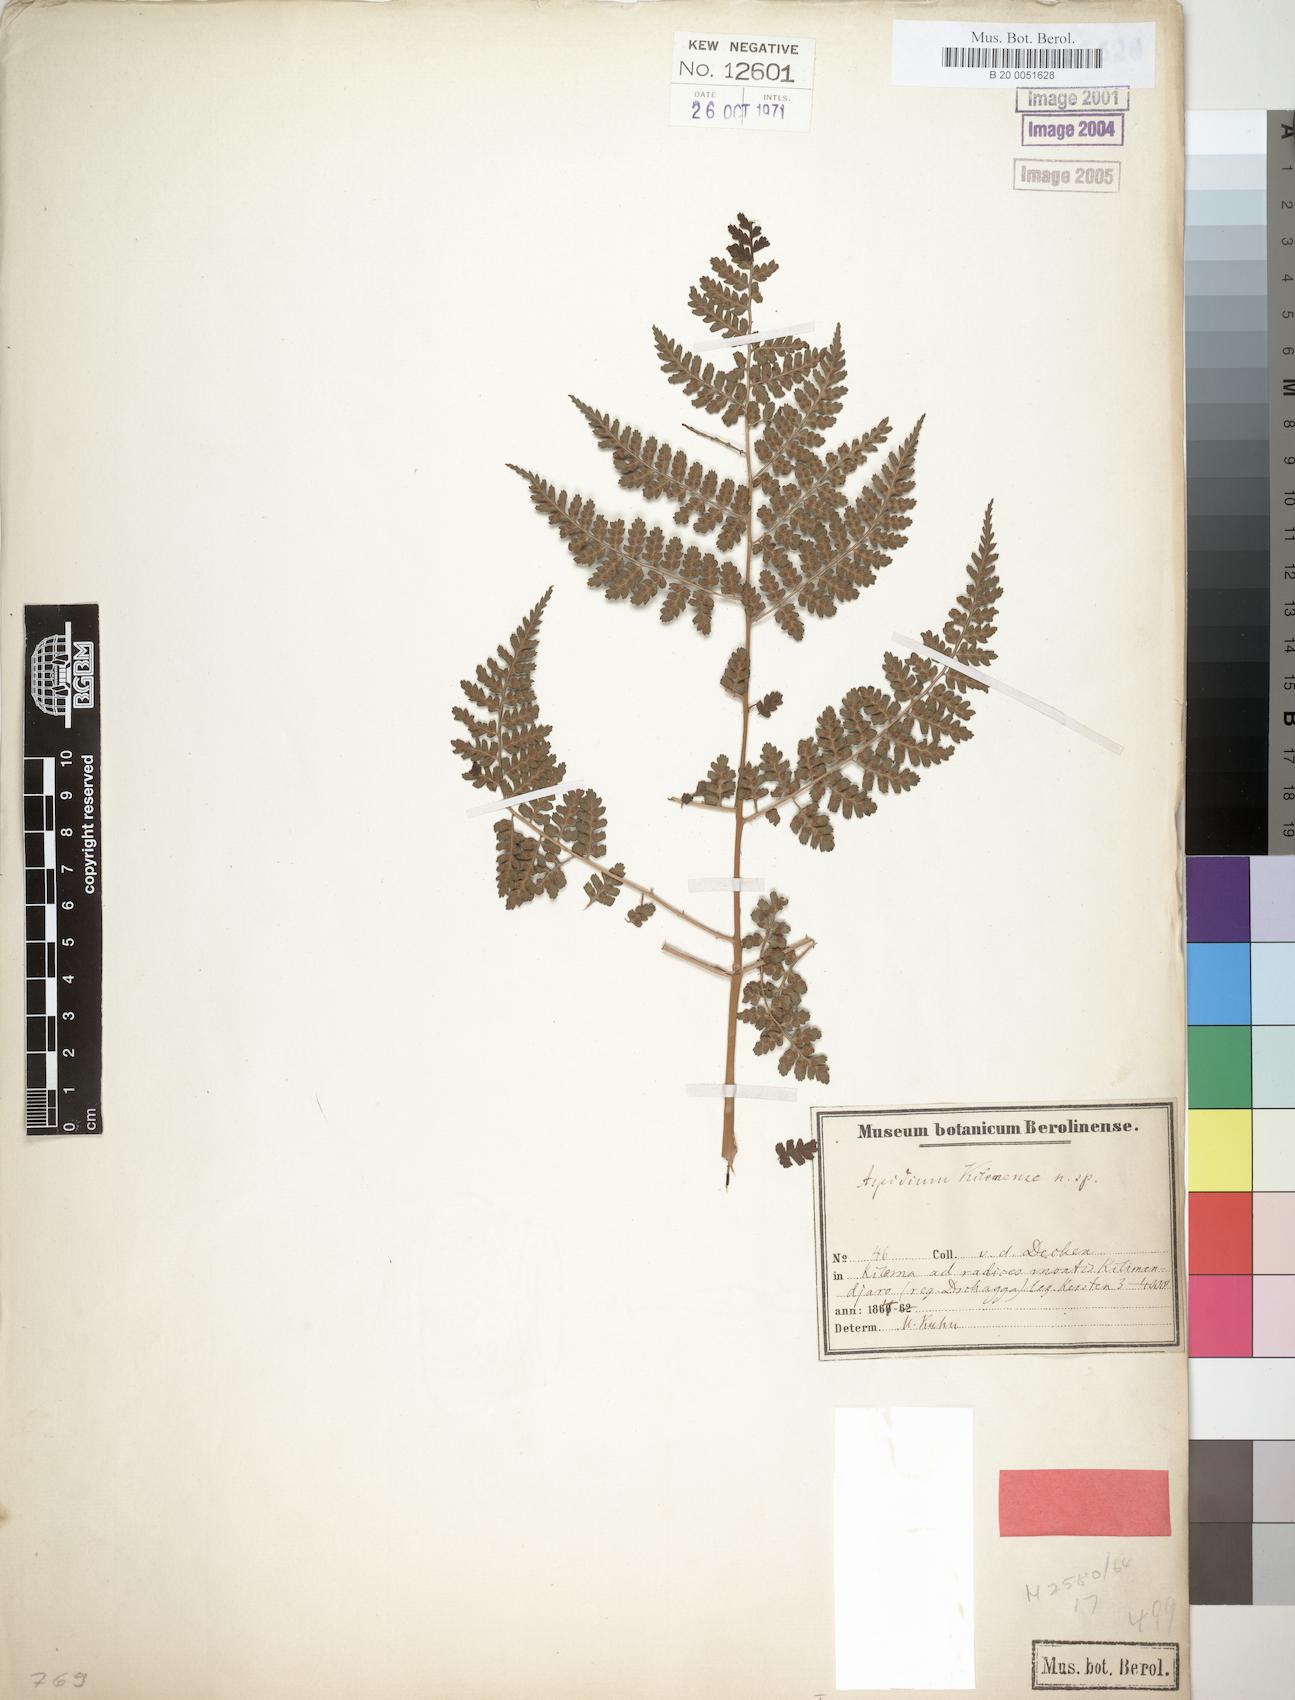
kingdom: Plantae
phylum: Tracheophyta
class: Polypodiopsida
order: Polypodiales
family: Dryopteridaceae
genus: Dryopteris
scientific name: Dryopteris kilemensis
